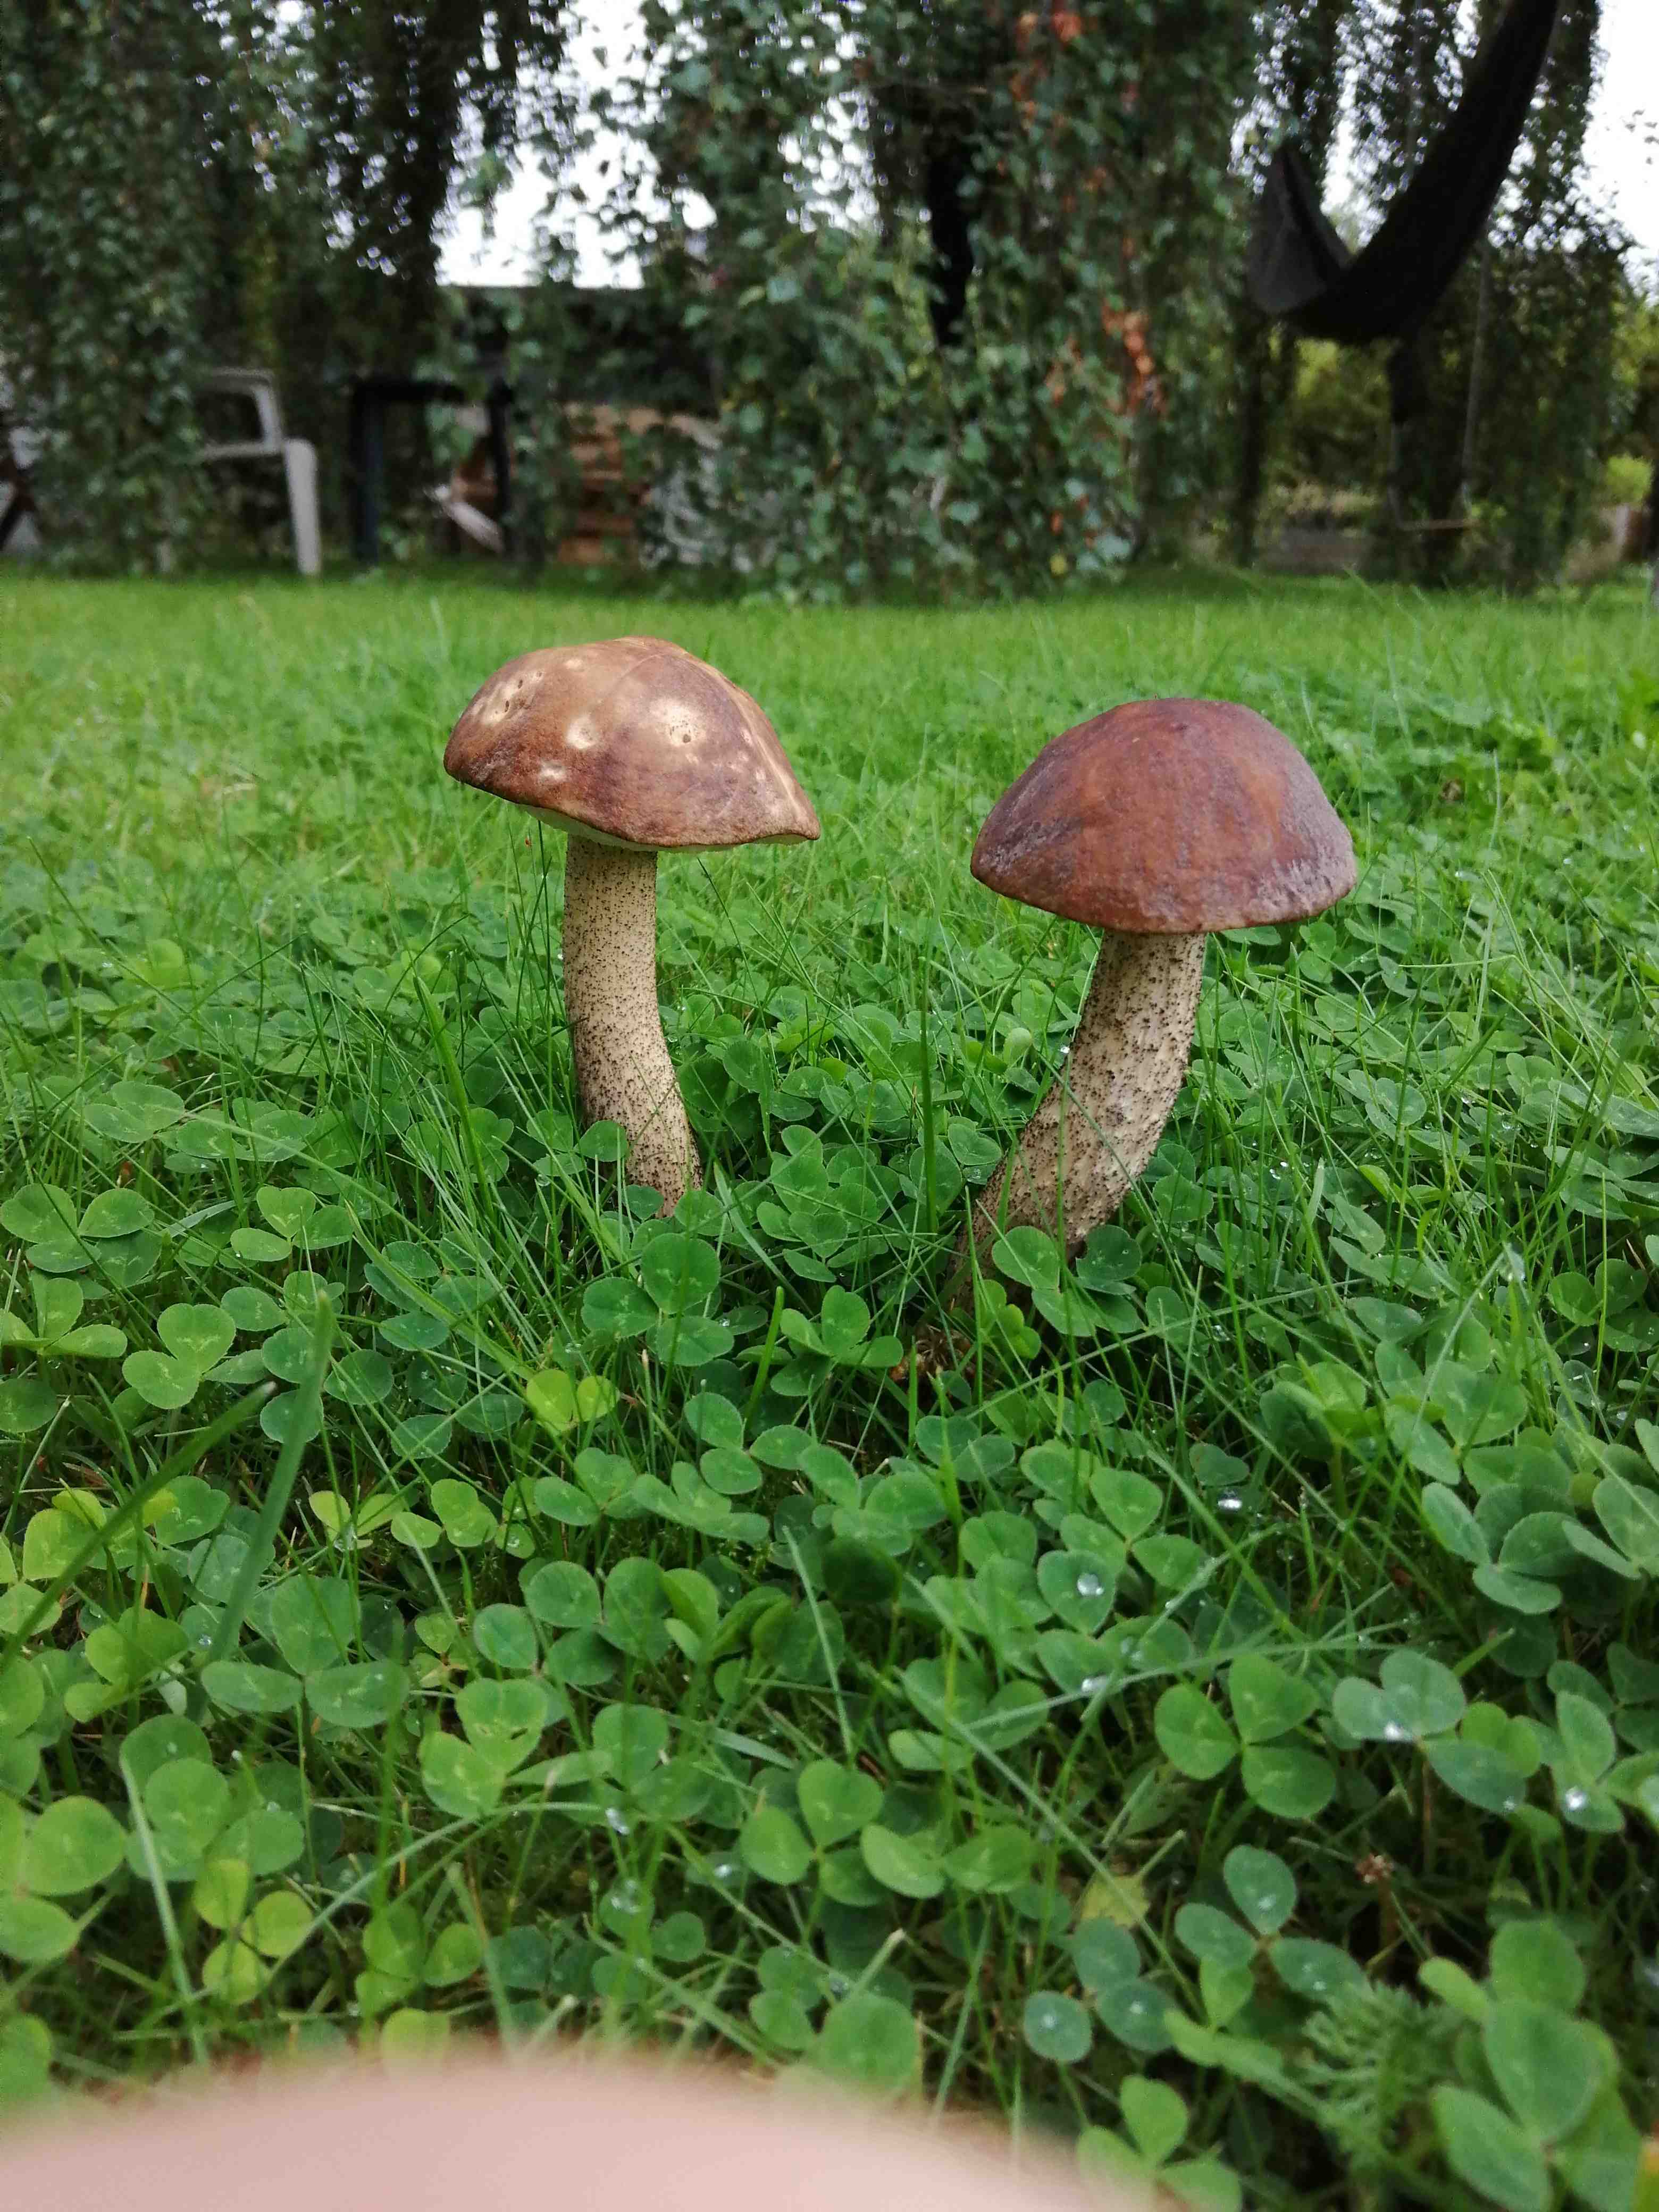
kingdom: Fungi
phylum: Basidiomycota
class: Agaricomycetes
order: Boletales
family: Boletaceae
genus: Leccinum
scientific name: Leccinum scabrum
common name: brun skælrørhat
